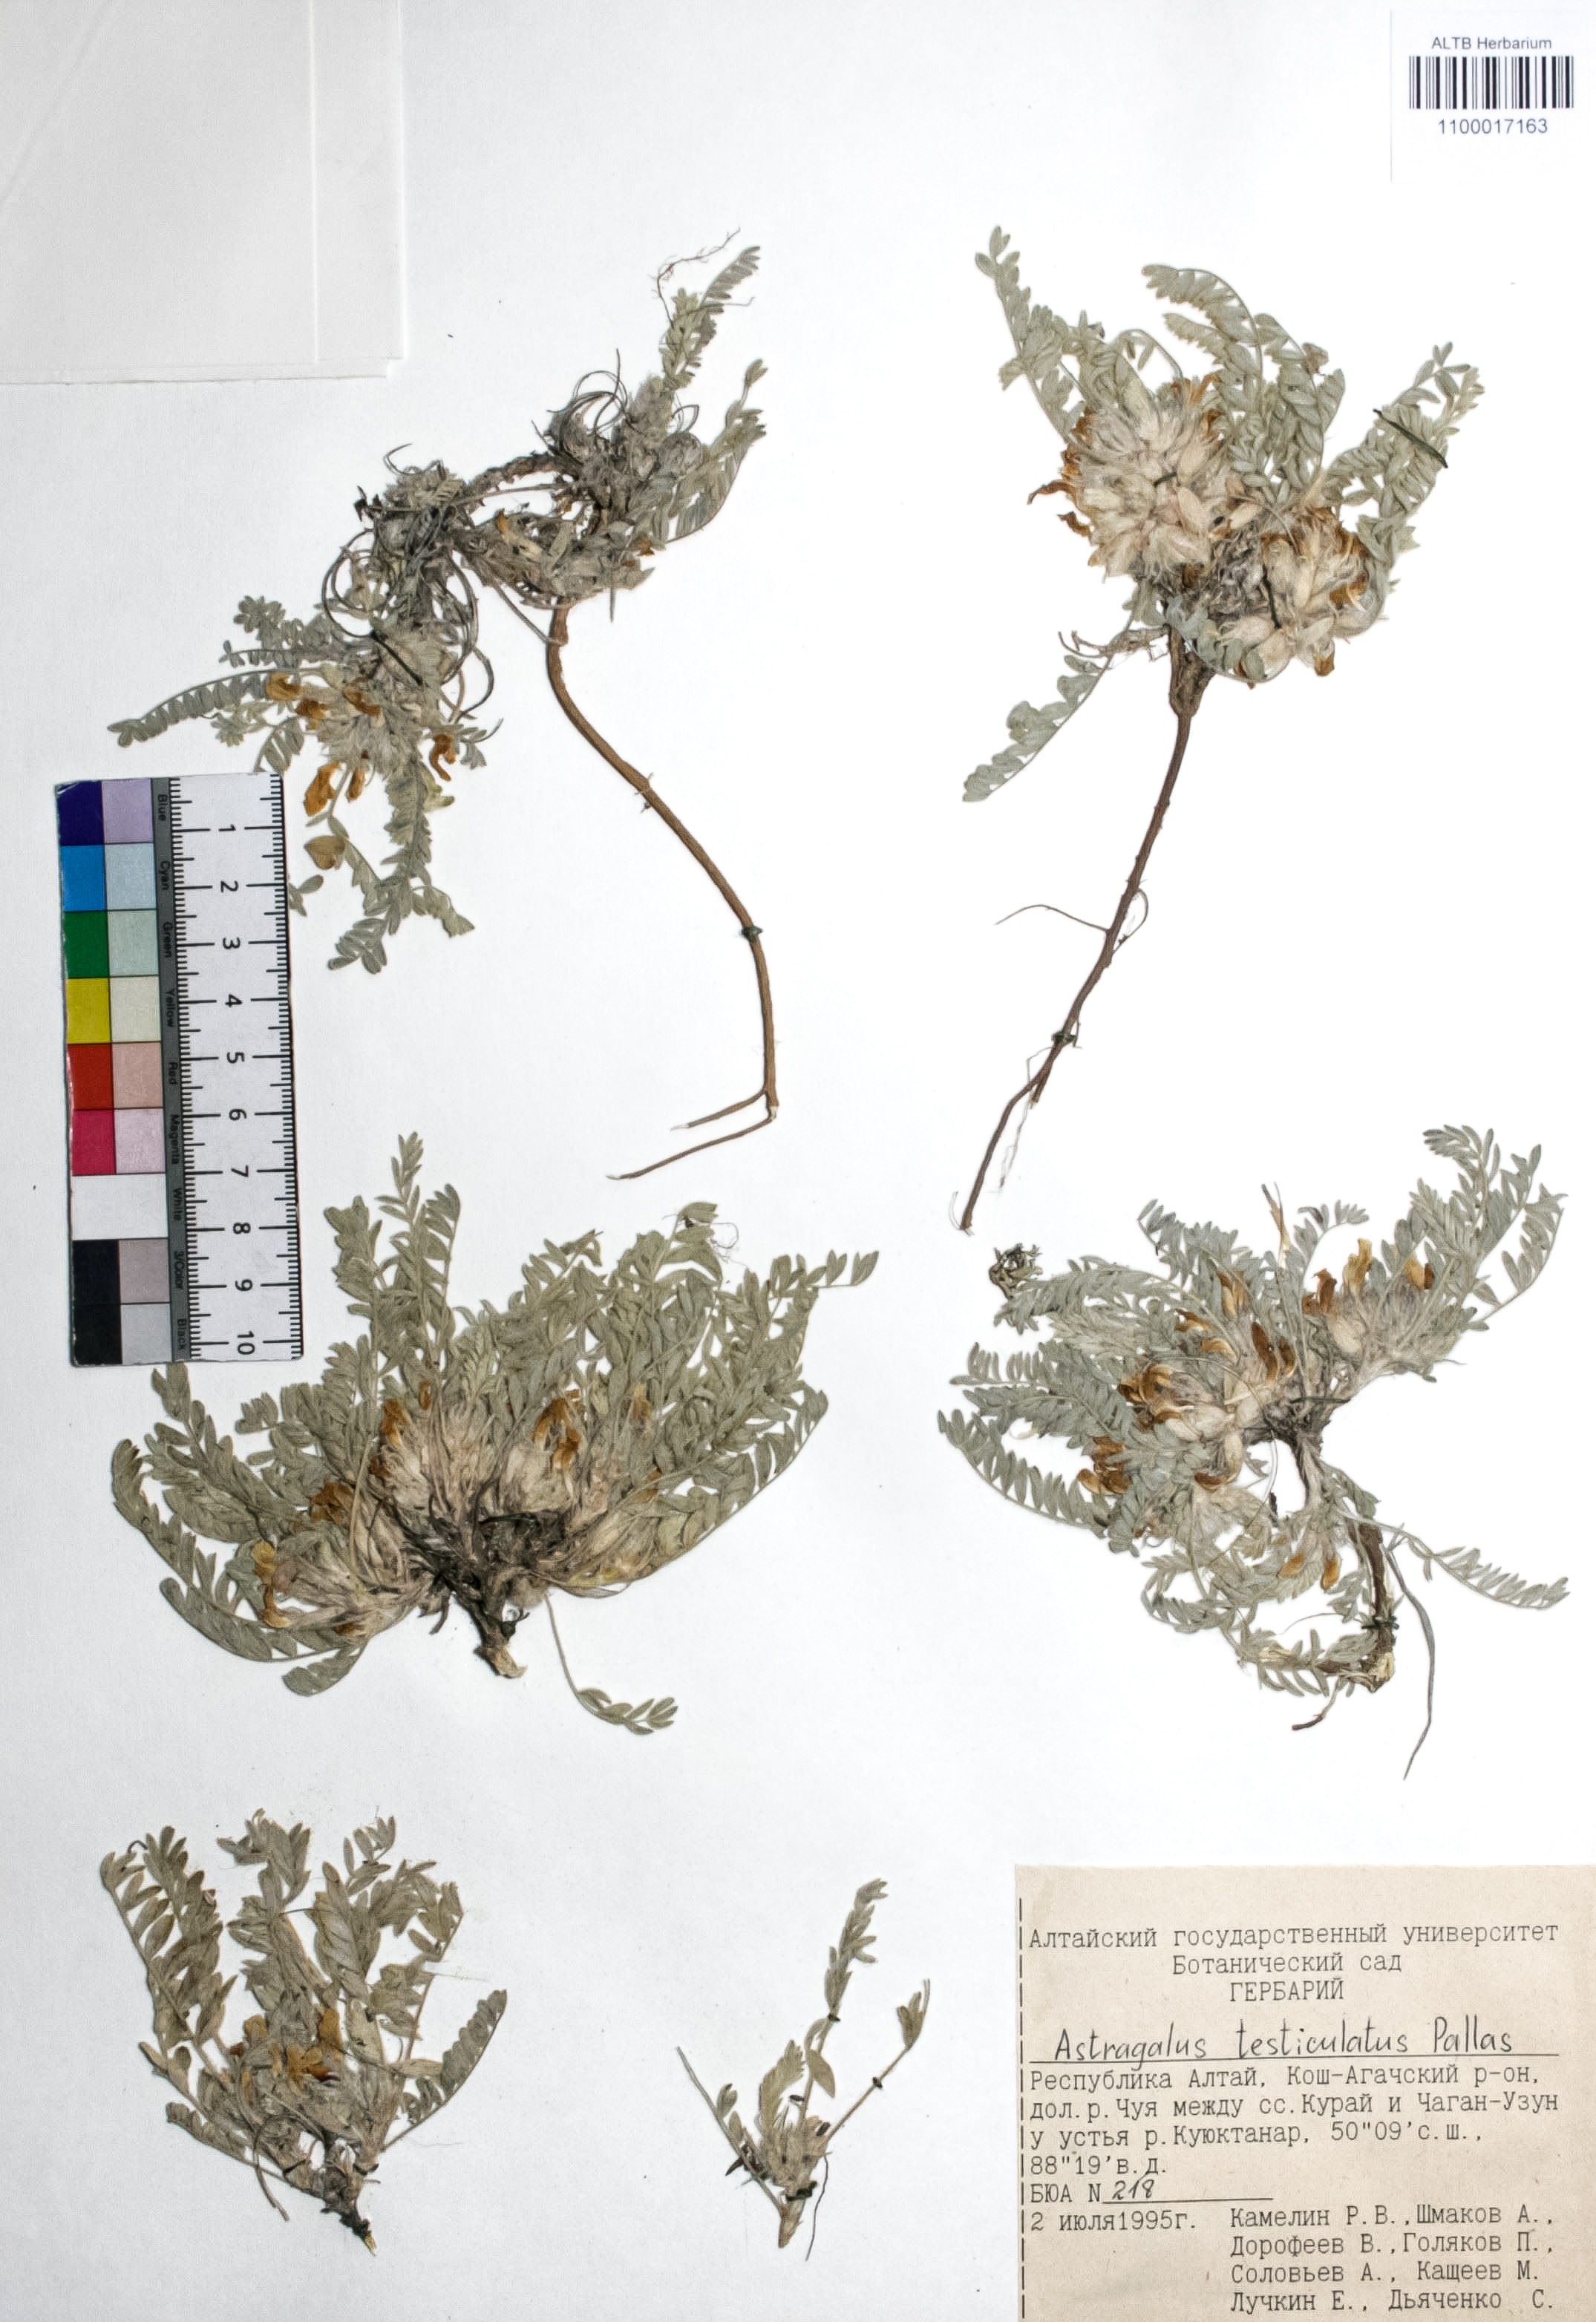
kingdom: Plantae
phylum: Tracheophyta
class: Magnoliopsida
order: Fabales
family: Fabaceae
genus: Astragalus
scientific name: Astragalus testiculatus
